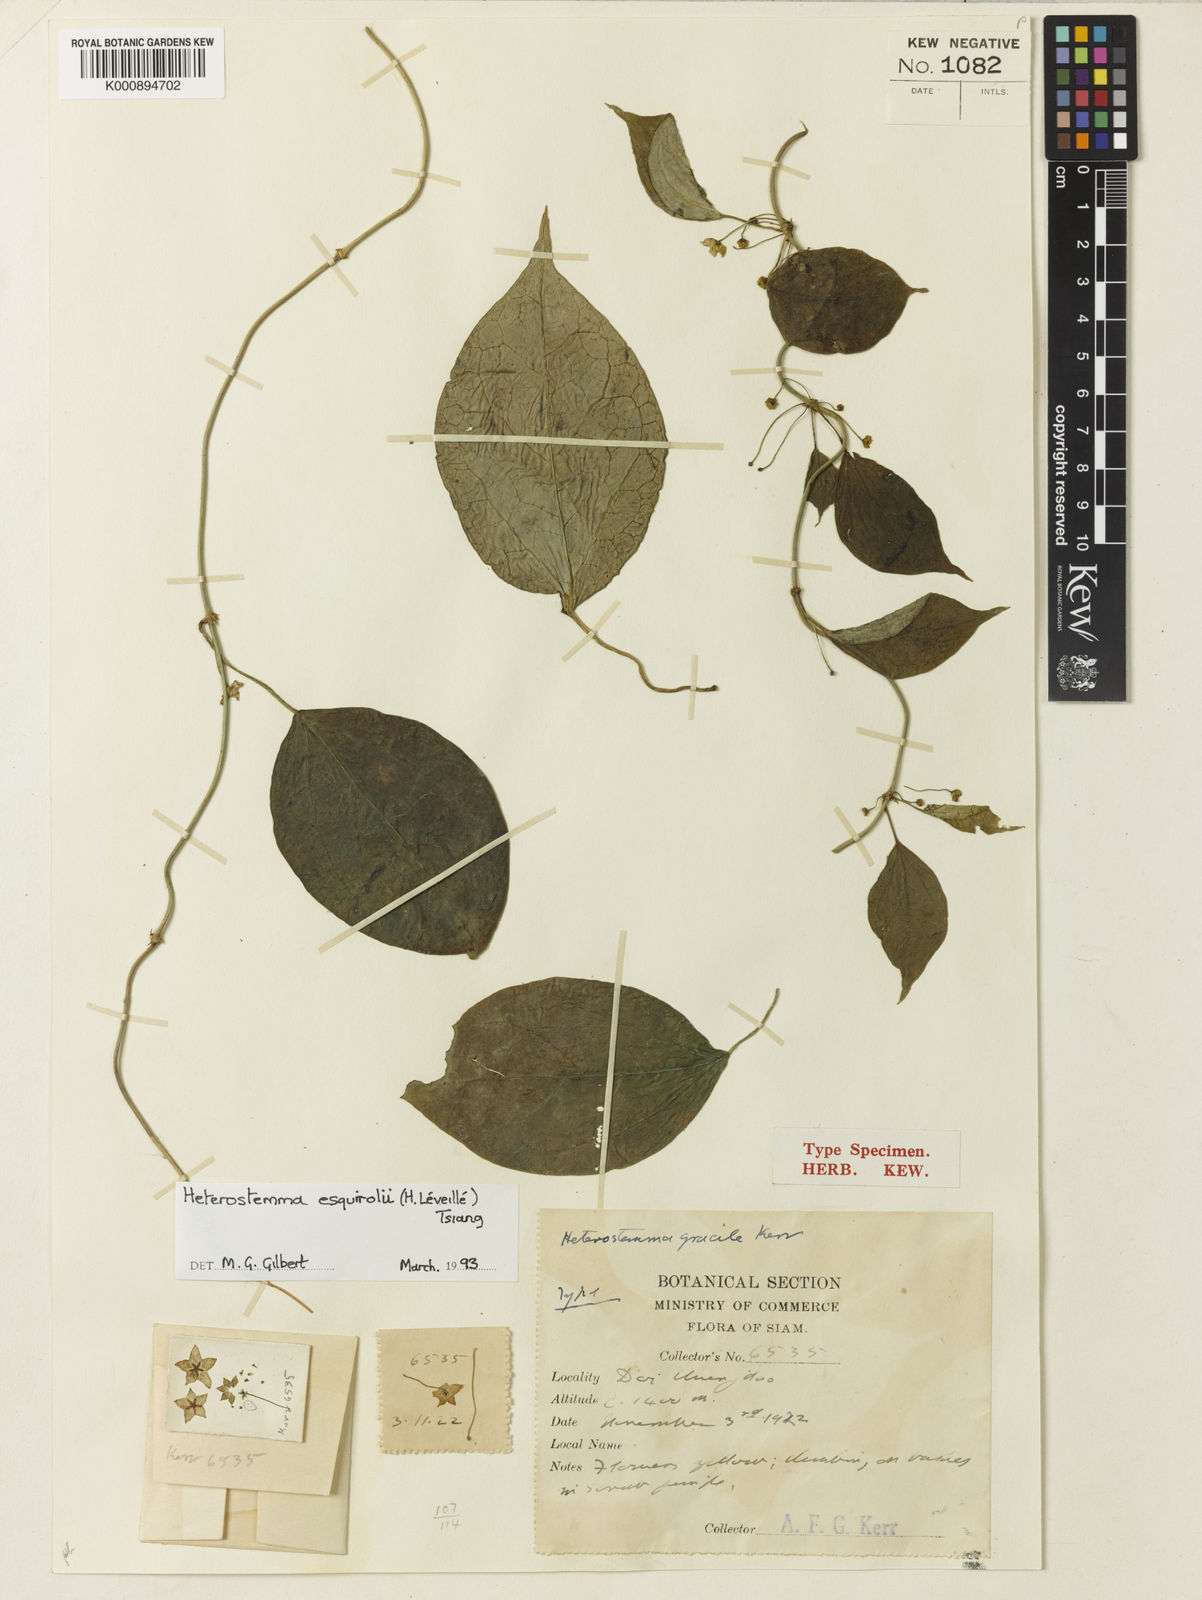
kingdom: Plantae
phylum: Tracheophyta
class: Magnoliopsida
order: Gentianales
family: Apocynaceae
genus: Heterostemma
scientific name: Heterostemma esquirolii
